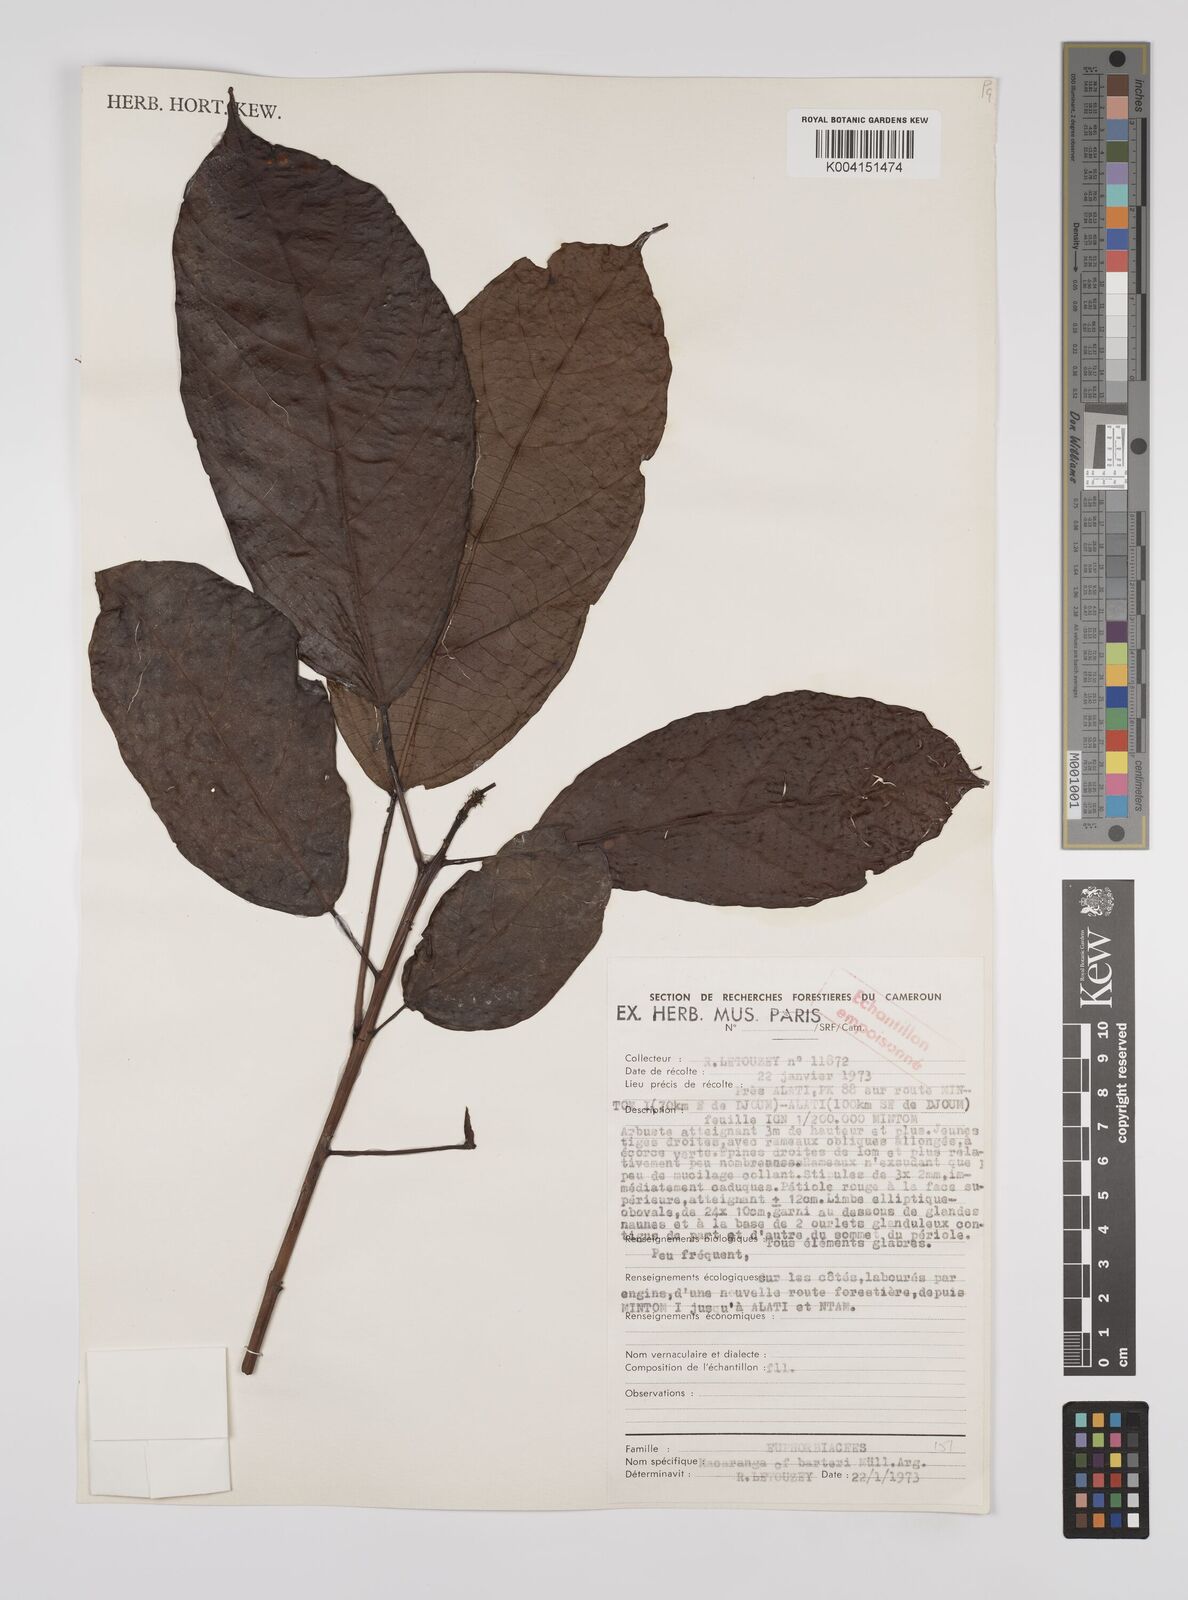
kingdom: Plantae
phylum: Tracheophyta
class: Magnoliopsida
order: Malpighiales
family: Euphorbiaceae
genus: Macaranga
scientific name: Macaranga barteri
